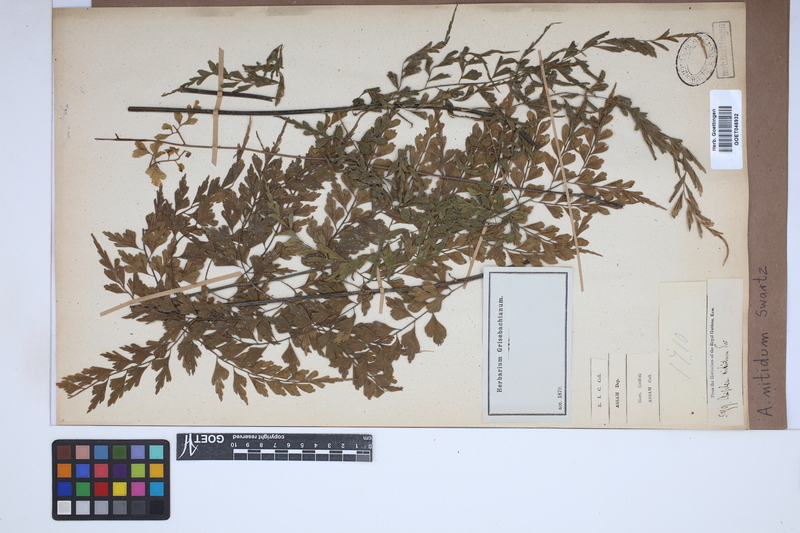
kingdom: Plantae
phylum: Tracheophyta
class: Polypodiopsida
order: Polypodiales
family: Aspleniaceae
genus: Asplenium
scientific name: Asplenium nitidum
